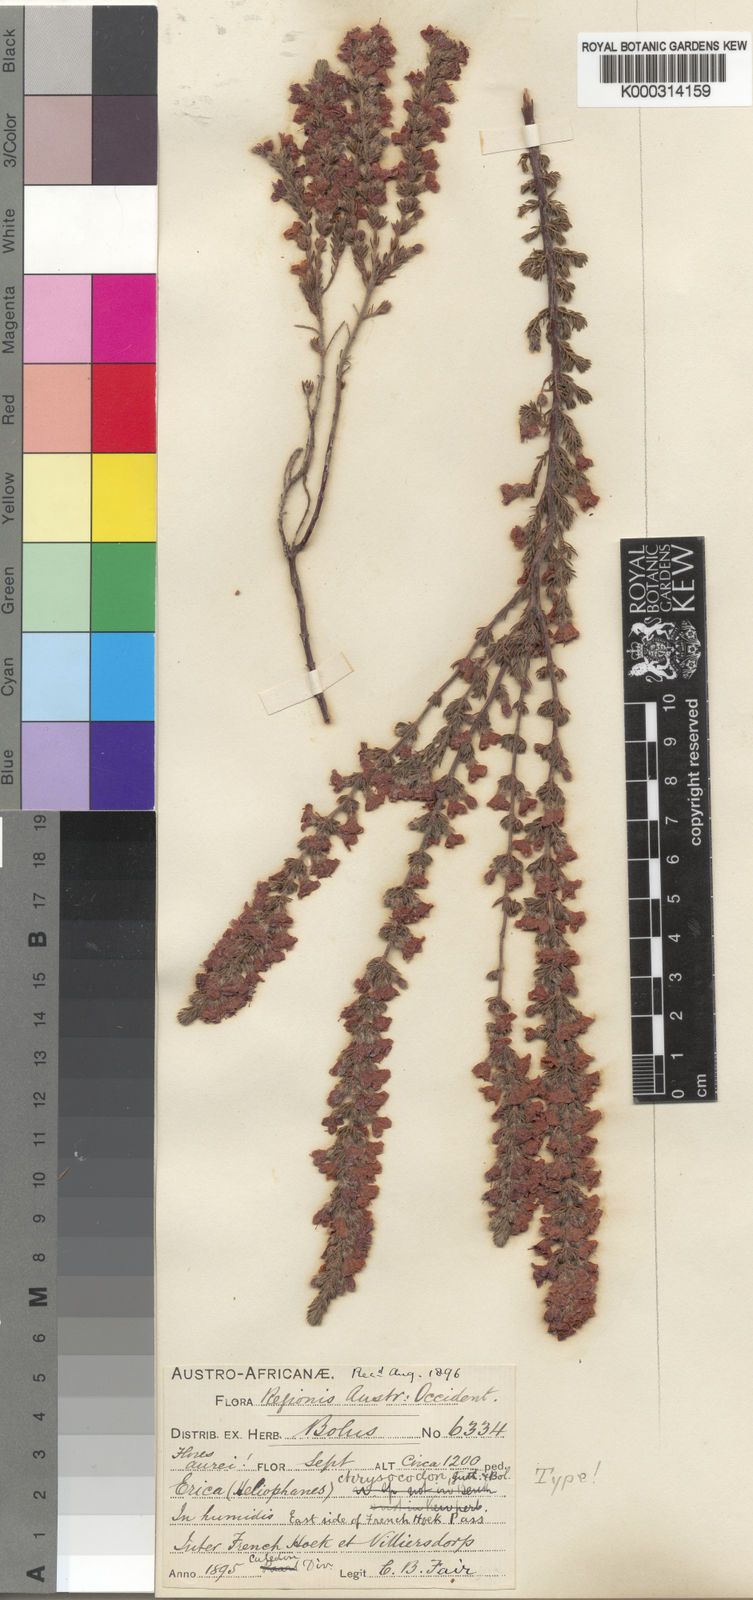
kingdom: Plantae
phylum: Tracheophyta
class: Magnoliopsida
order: Ericales
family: Ericaceae
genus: Erica
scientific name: Erica chrysocodon
